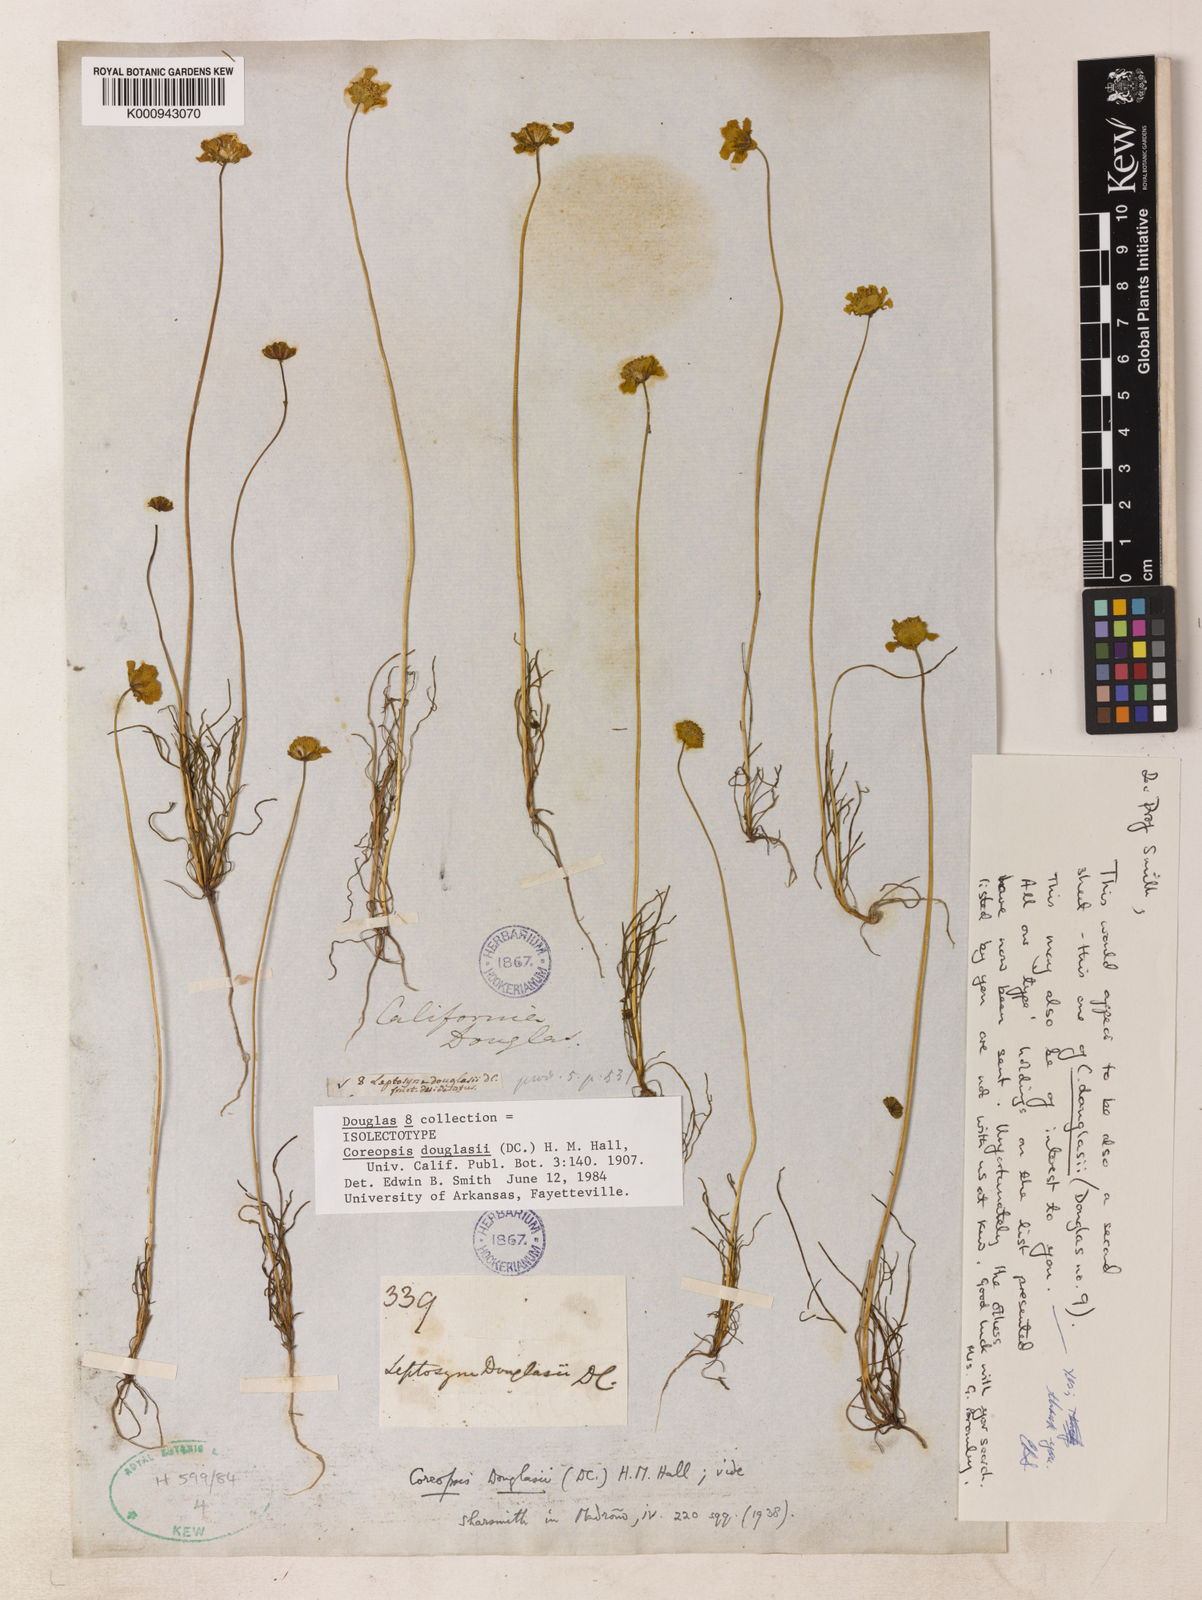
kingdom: Plantae
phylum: Tracheophyta
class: Magnoliopsida
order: Asterales
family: Asteraceae
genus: Coreopsis
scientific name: Coreopsis douglasii
